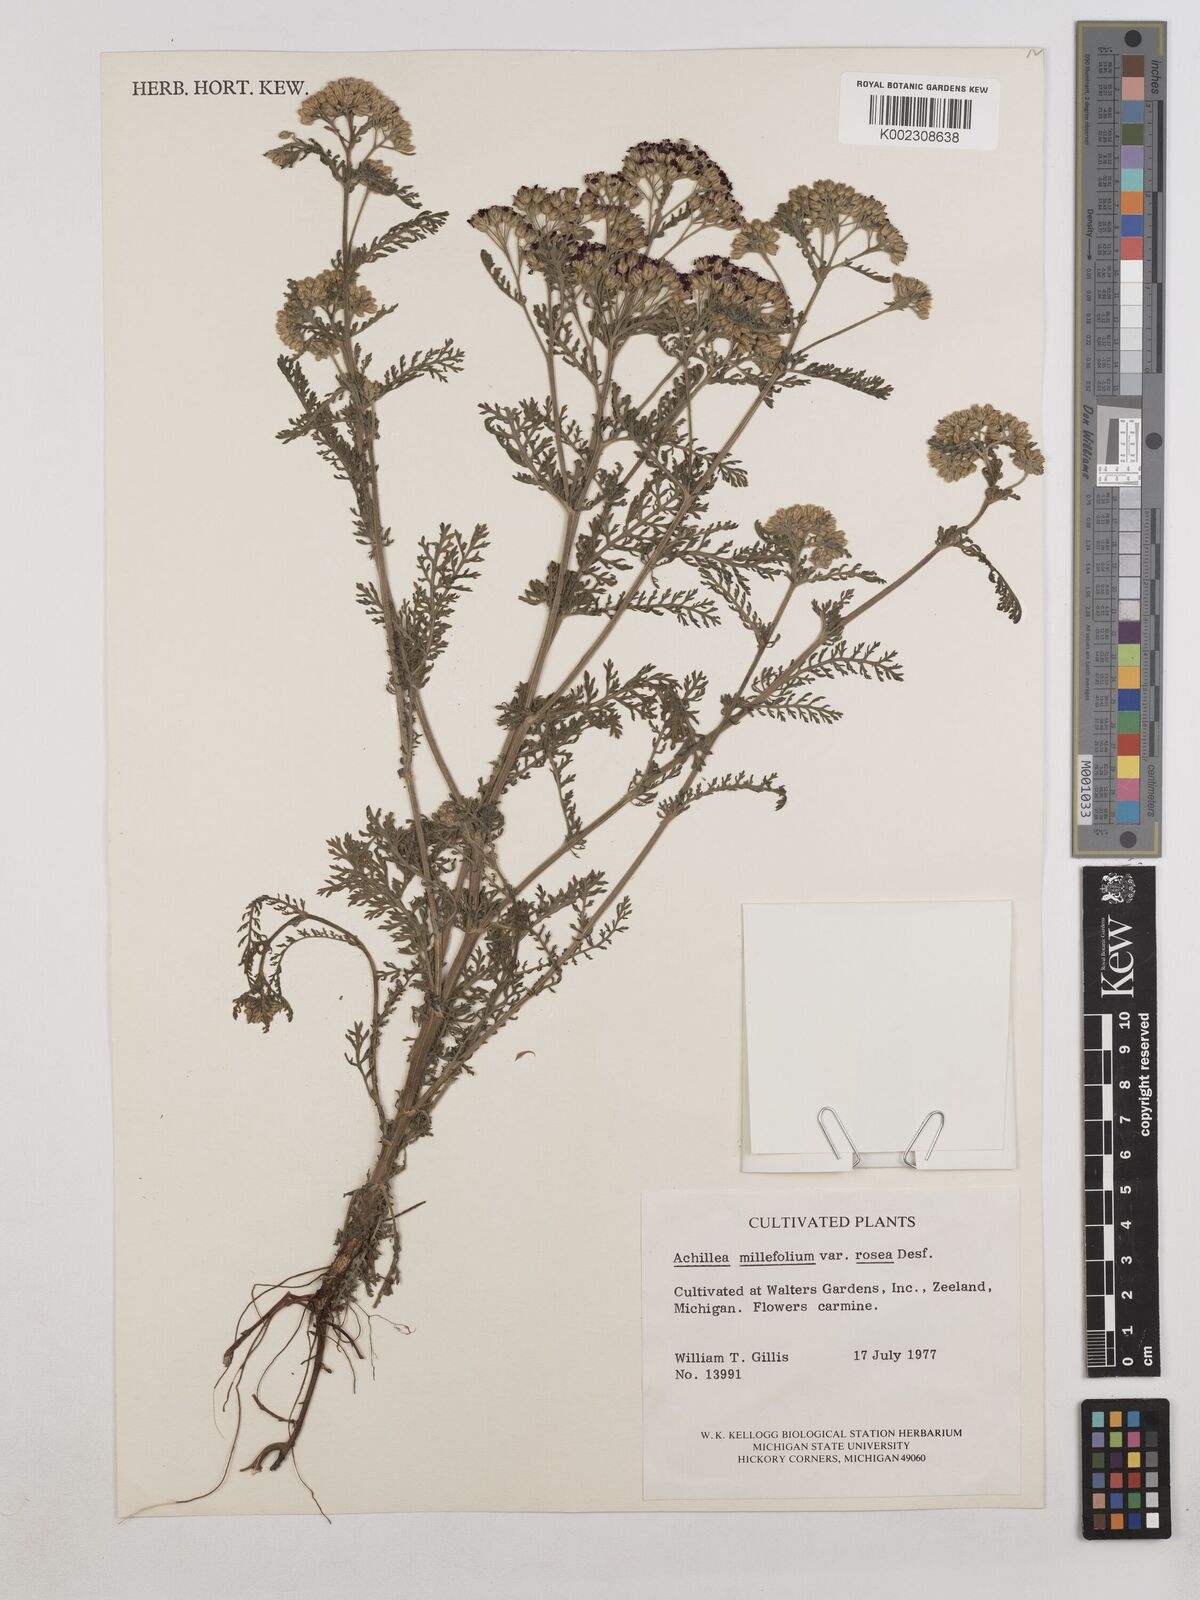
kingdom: Plantae
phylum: Tracheophyta
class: Magnoliopsida
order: Asterales
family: Asteraceae
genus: Achillea
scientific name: Achillea millefolium
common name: Yarrow
